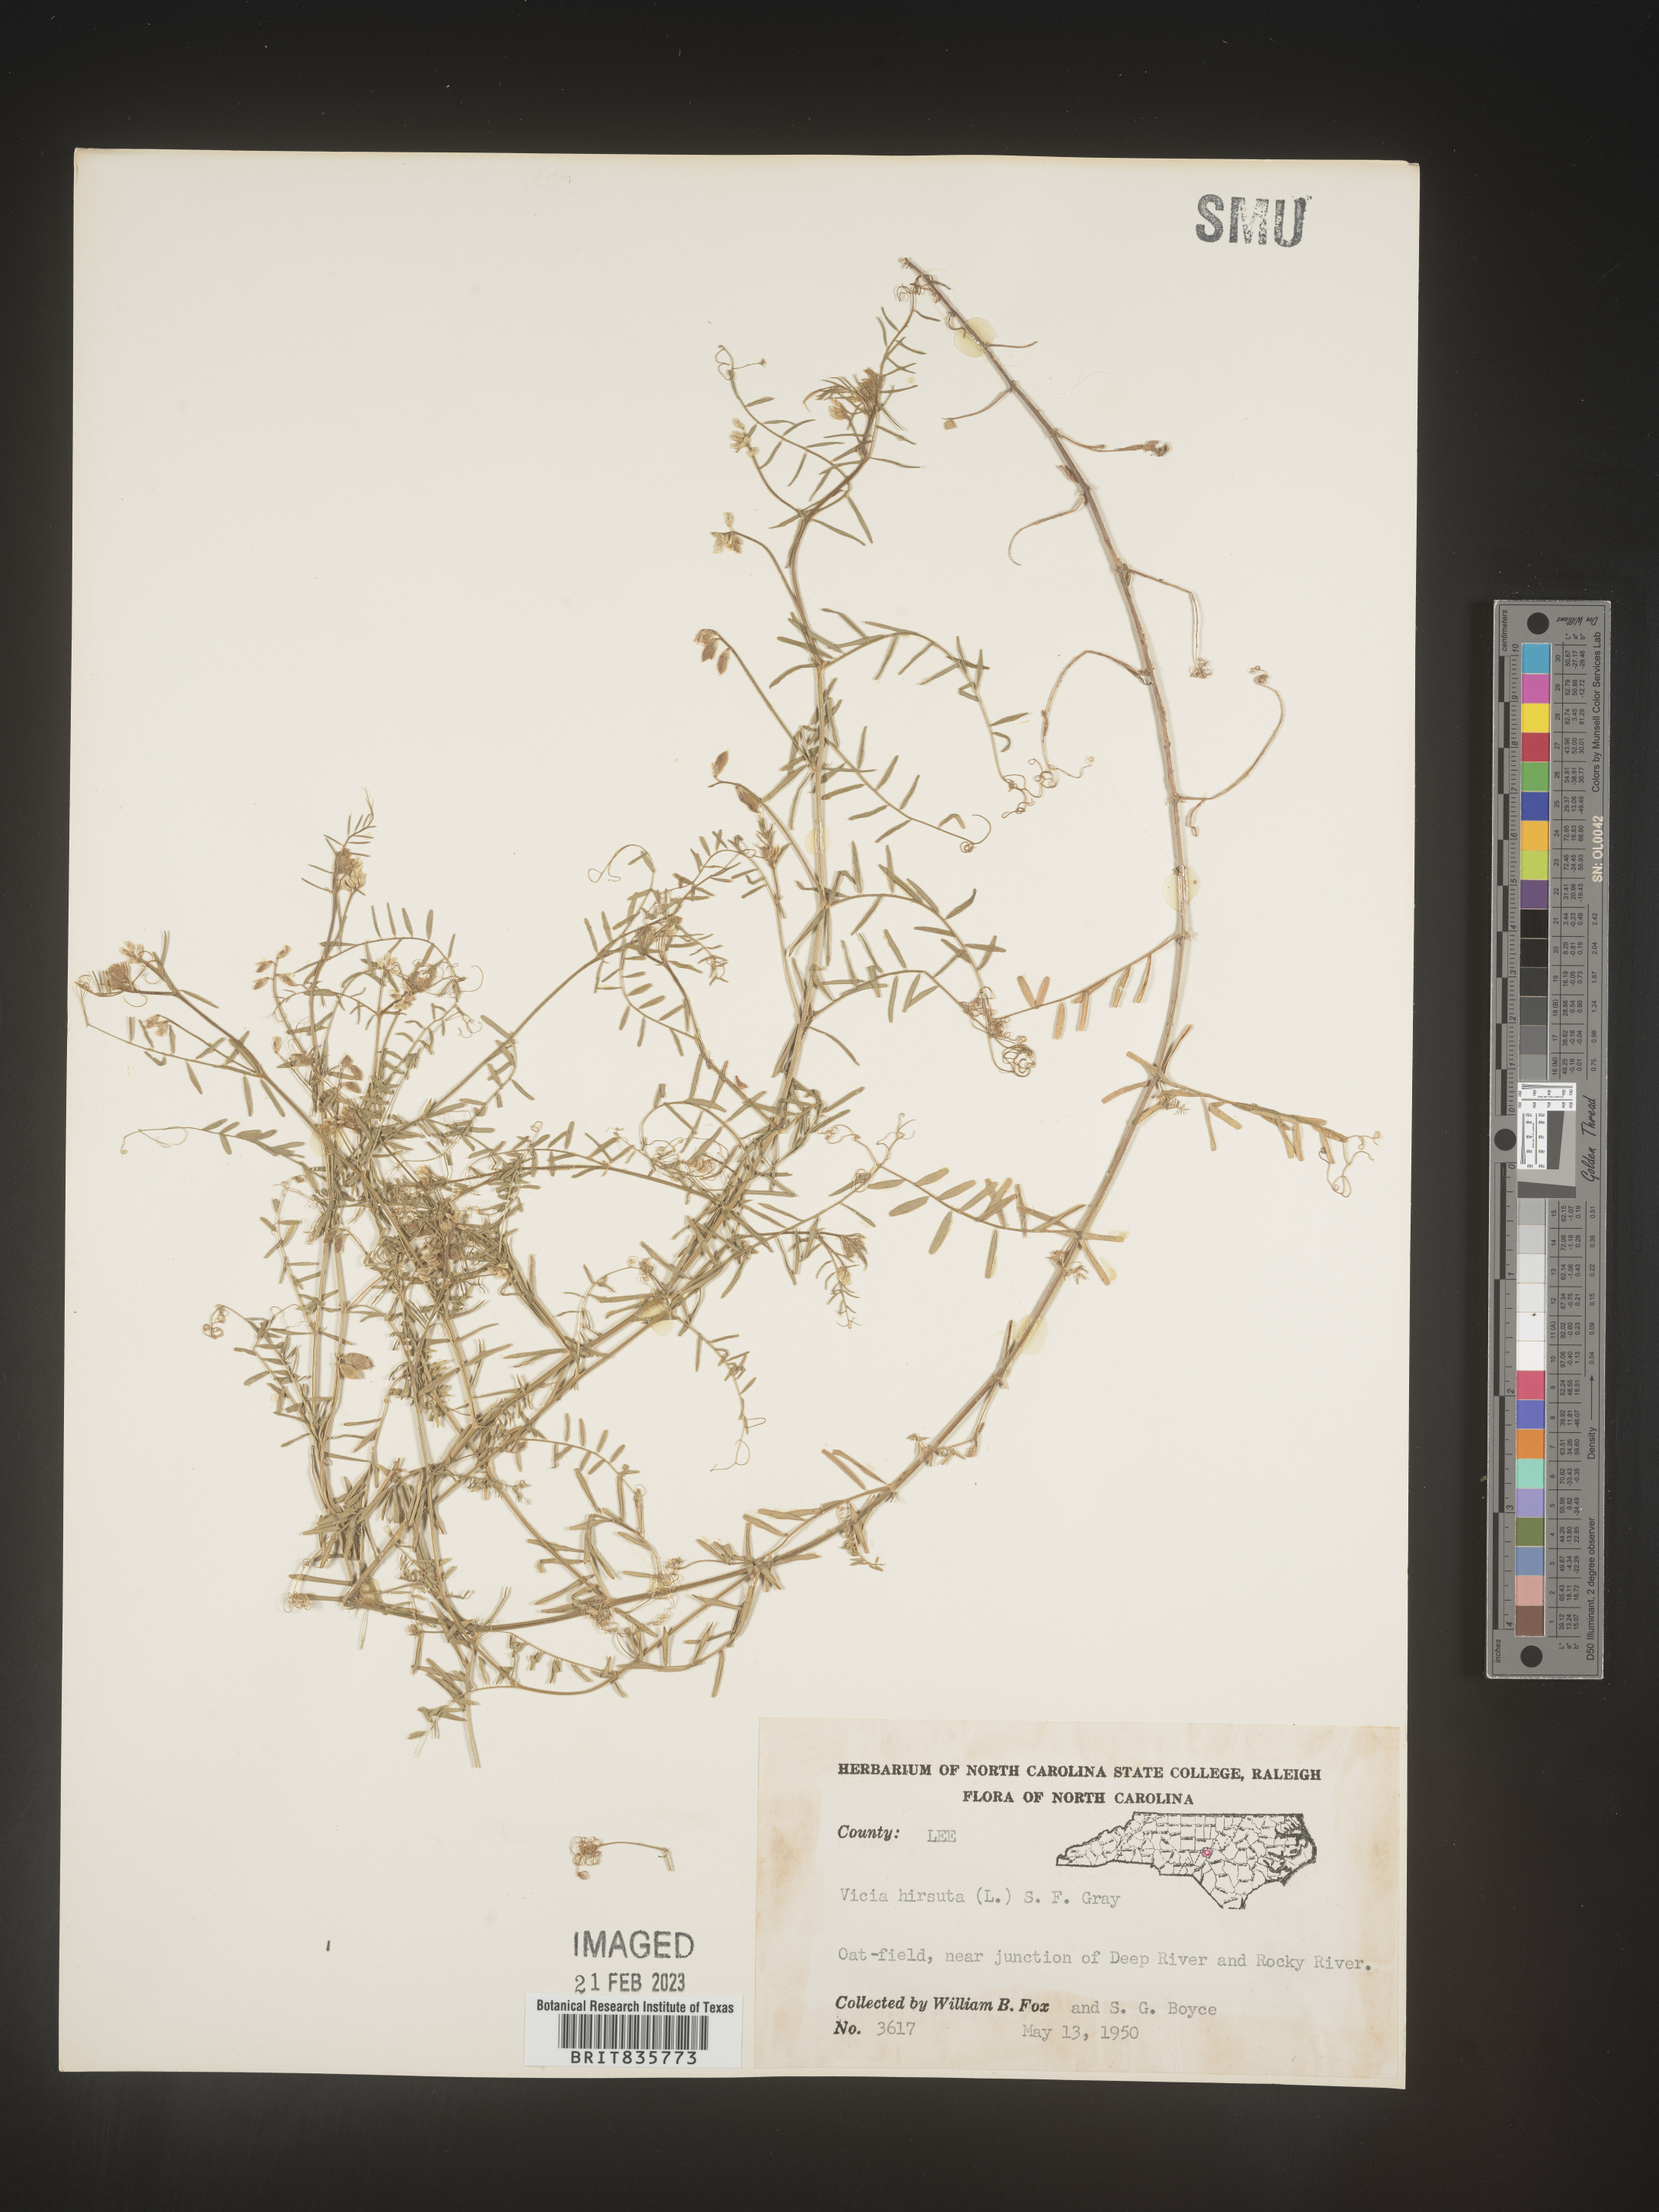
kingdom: Plantae
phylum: Tracheophyta
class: Magnoliopsida
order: Fabales
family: Fabaceae
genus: Vicia
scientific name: Vicia
